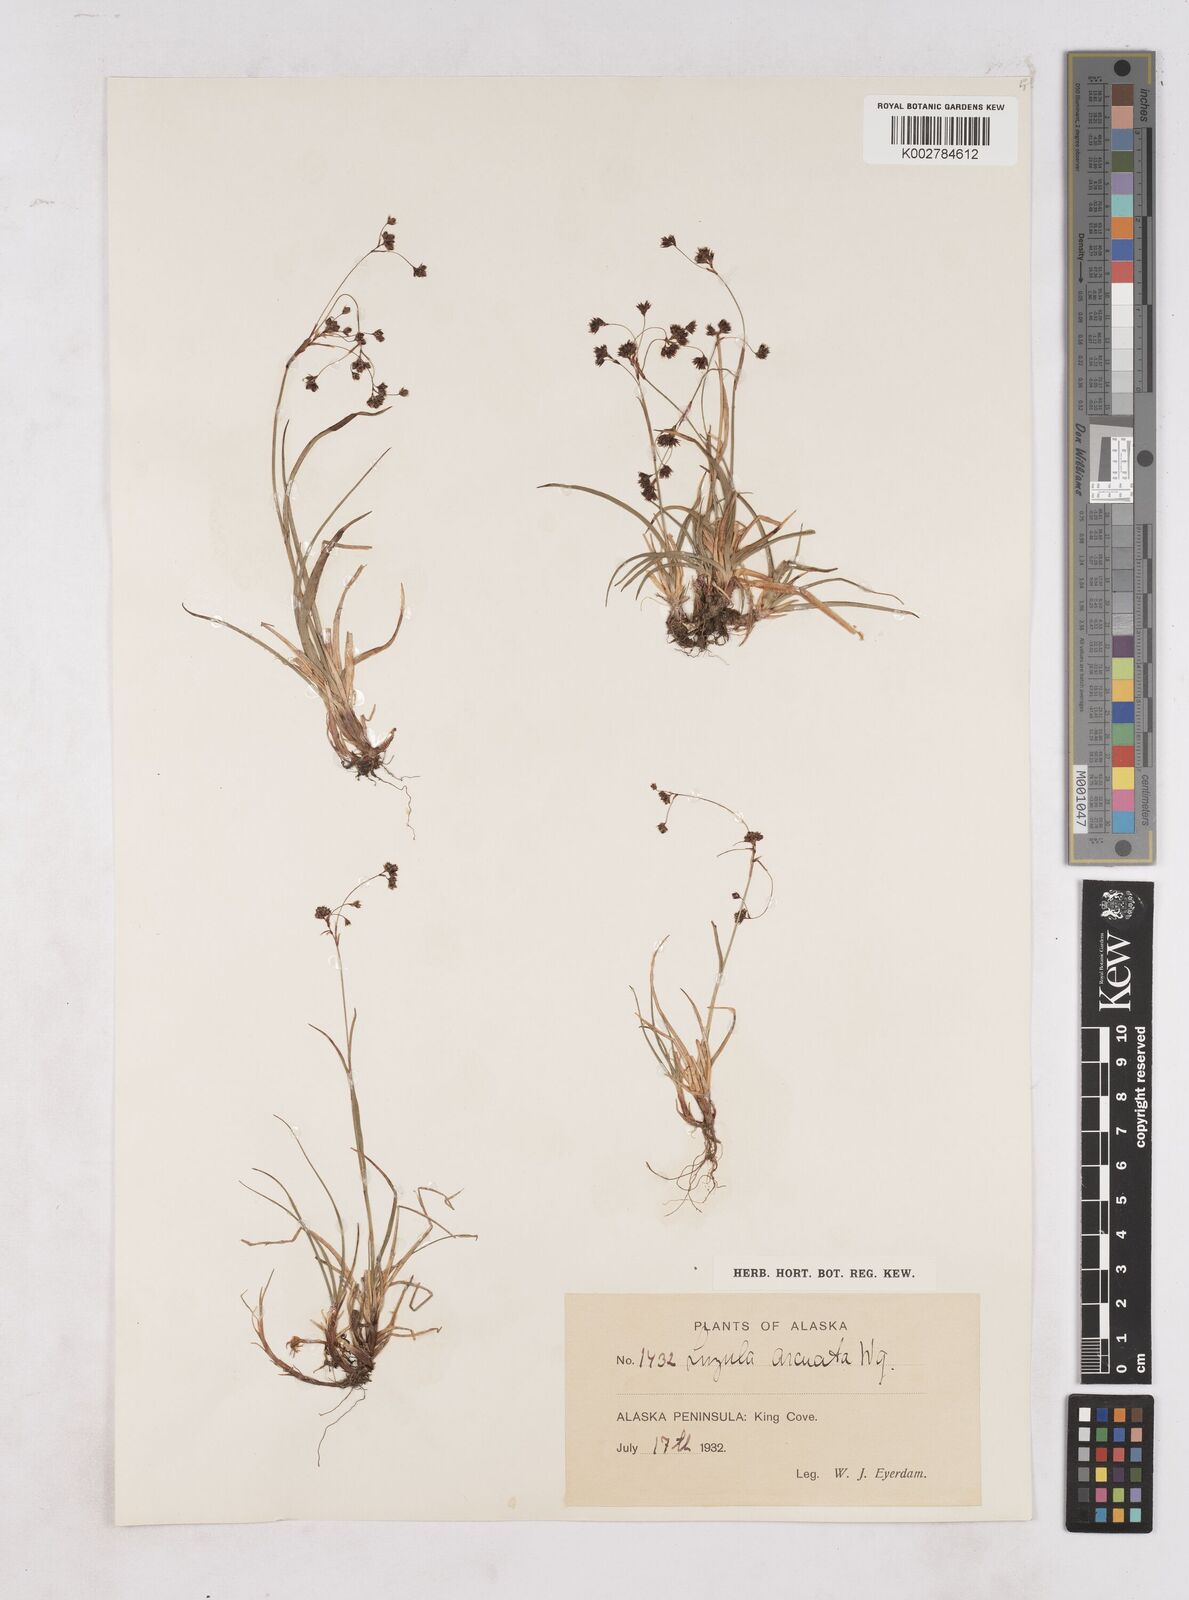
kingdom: Plantae
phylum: Tracheophyta
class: Liliopsida
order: Poales
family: Juncaceae
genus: Luzula
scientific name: Luzula arcuata
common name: Curved wood-rush
